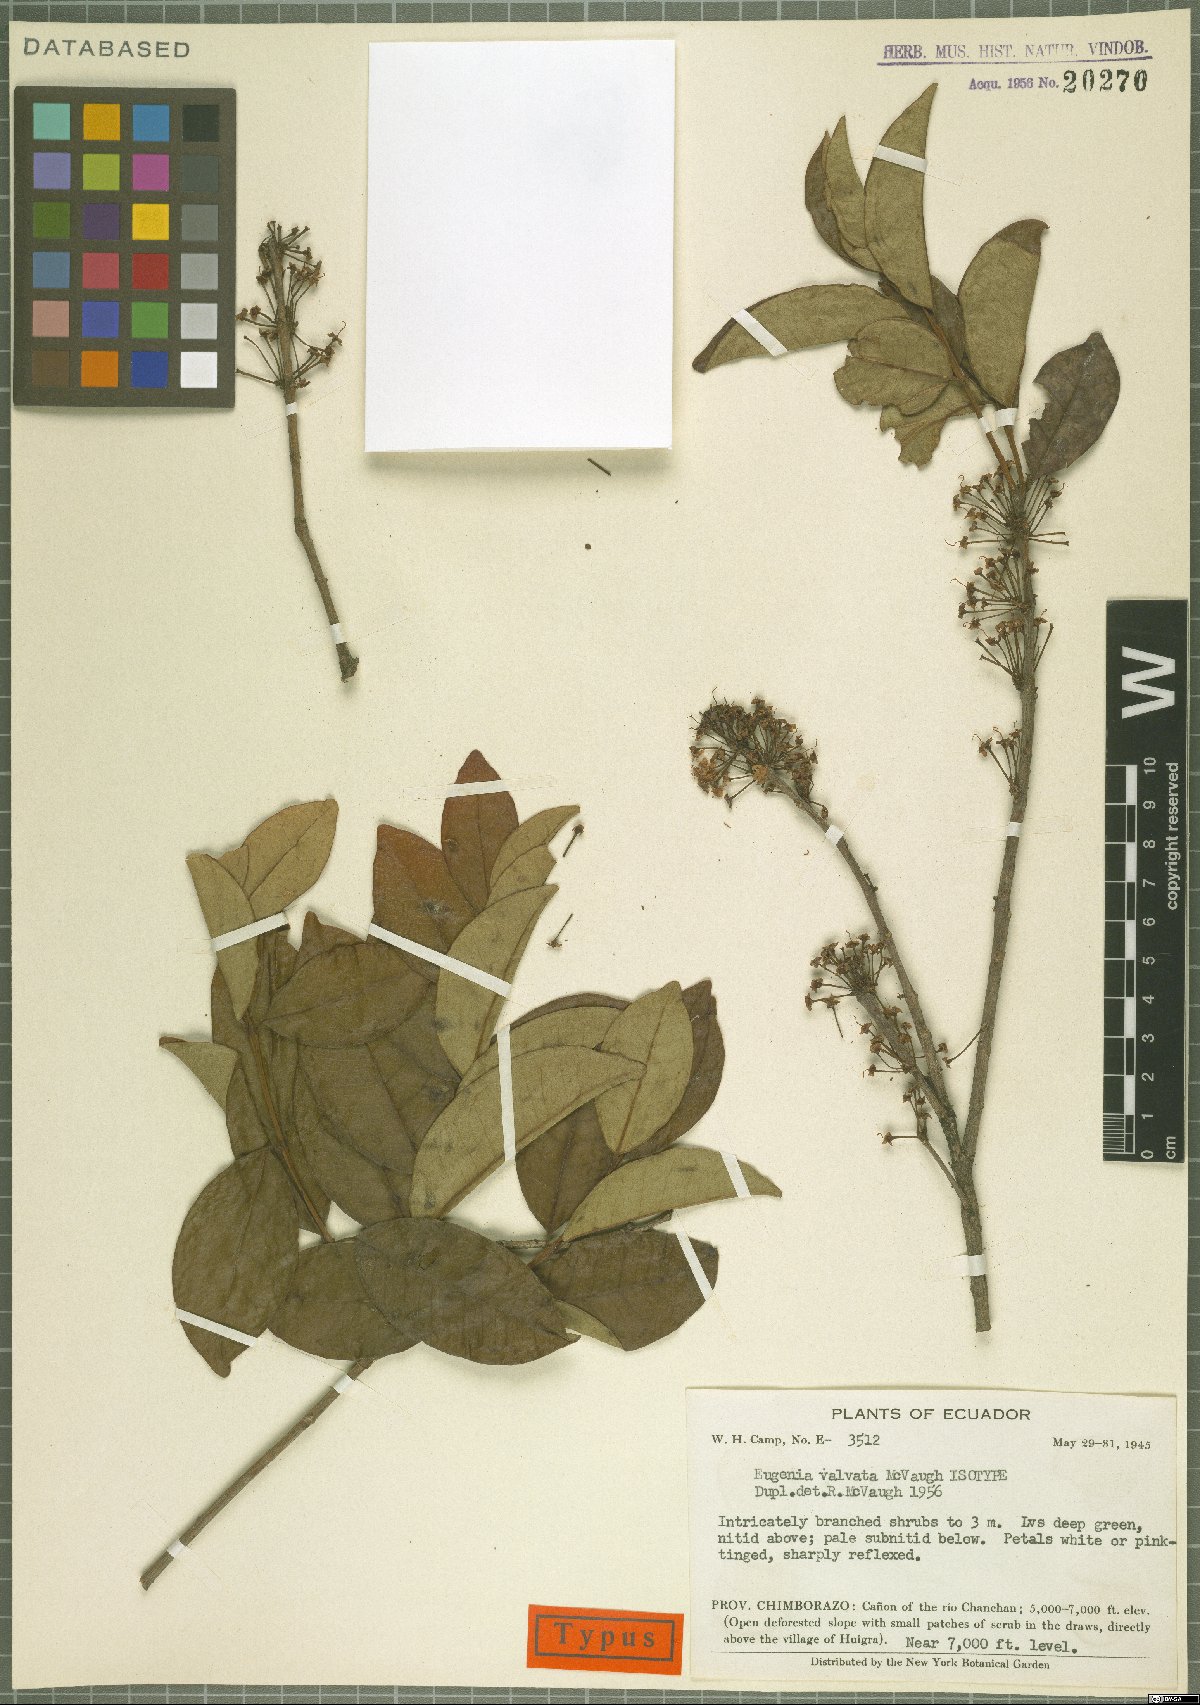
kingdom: Plantae
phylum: Tracheophyta
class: Magnoliopsida
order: Myrtales
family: Myrtaceae
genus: Eugenia
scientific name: Eugenia valvata
